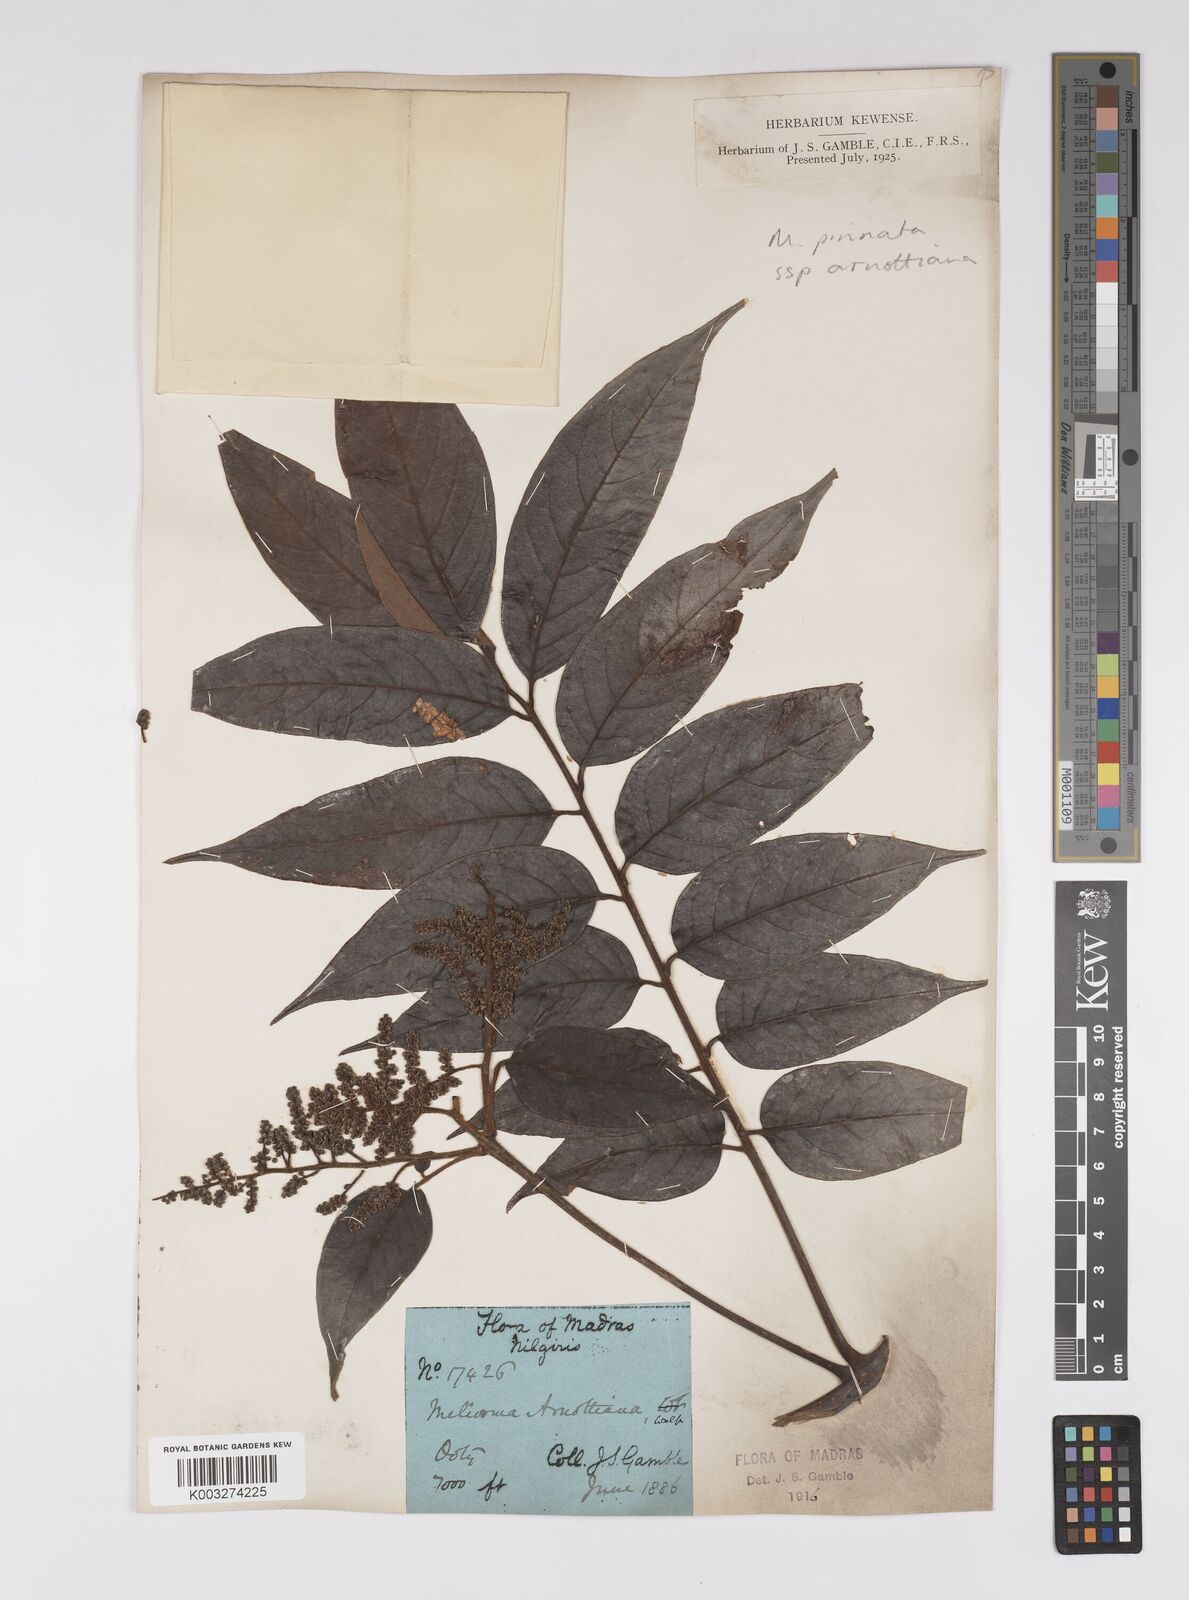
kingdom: Plantae
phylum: Tracheophyta
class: Magnoliopsida
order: Proteales
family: Sabiaceae
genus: Meliosma
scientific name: Meliosma rhoifolia
